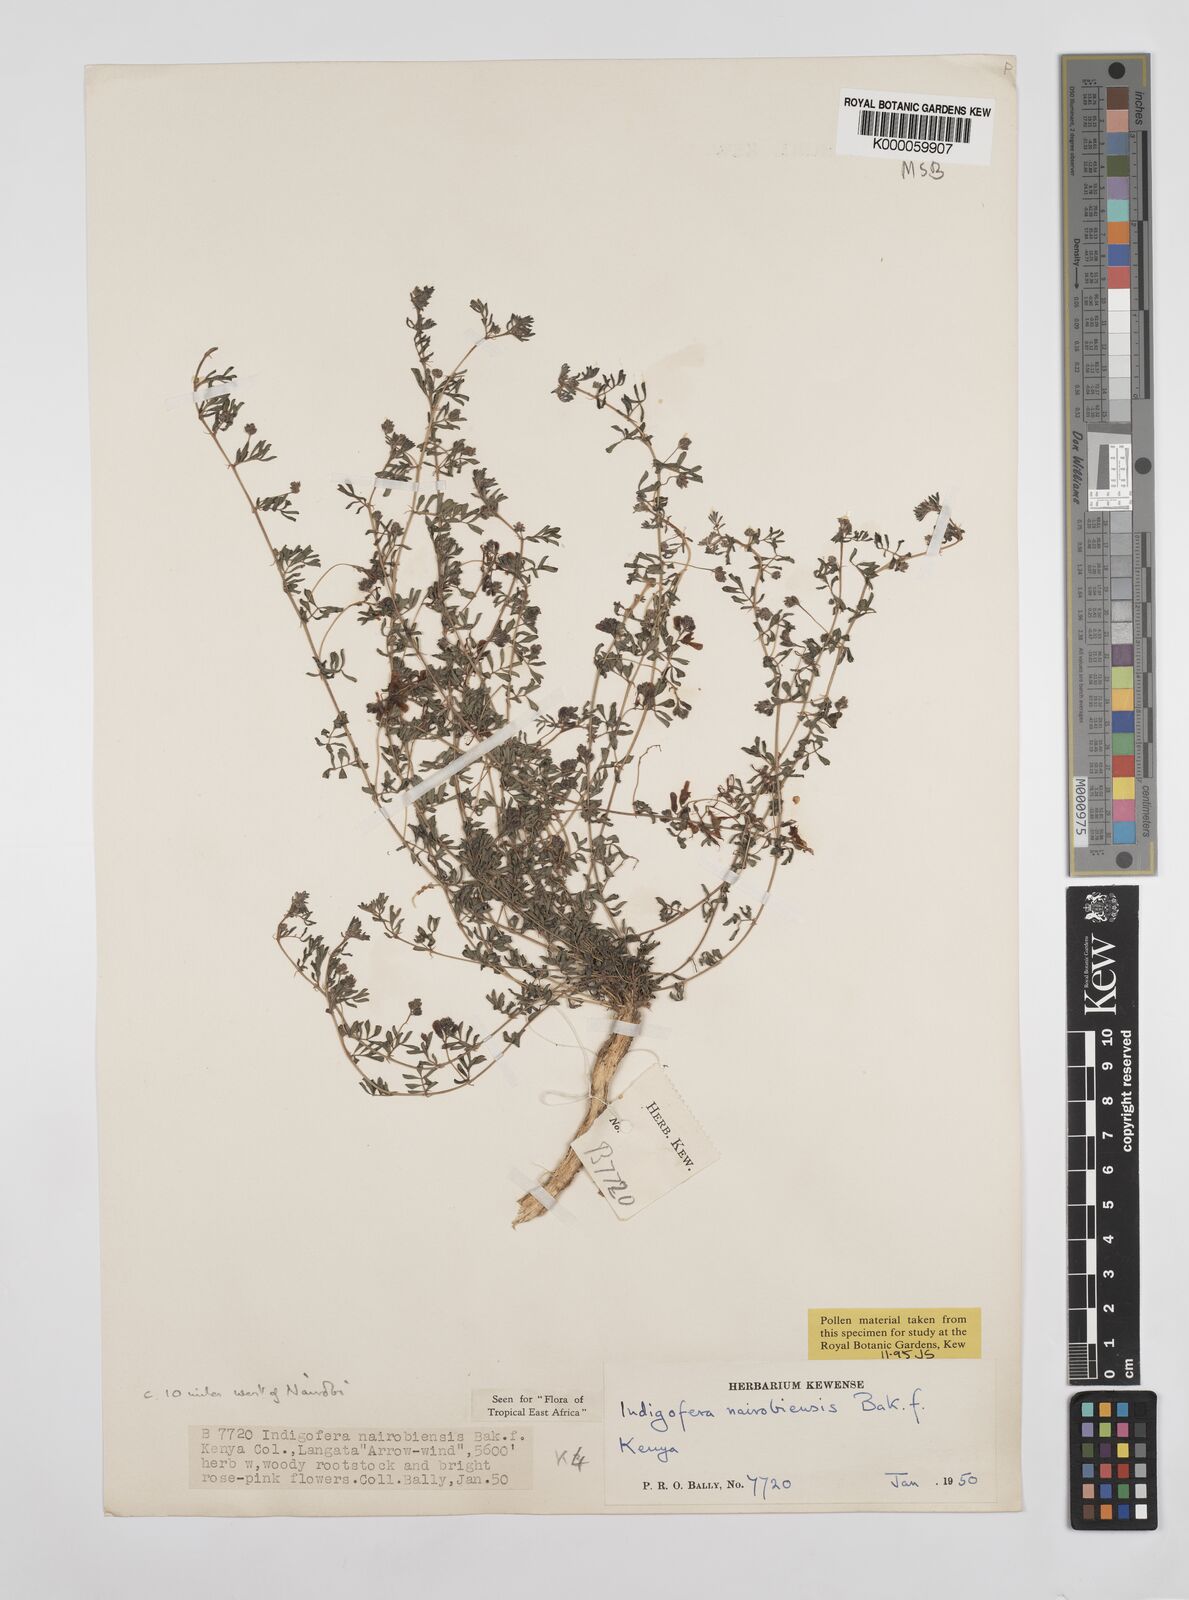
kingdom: Plantae
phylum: Tracheophyta
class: Magnoliopsida
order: Fabales
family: Fabaceae
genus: Indigofera
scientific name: Indigofera nairobiensis
